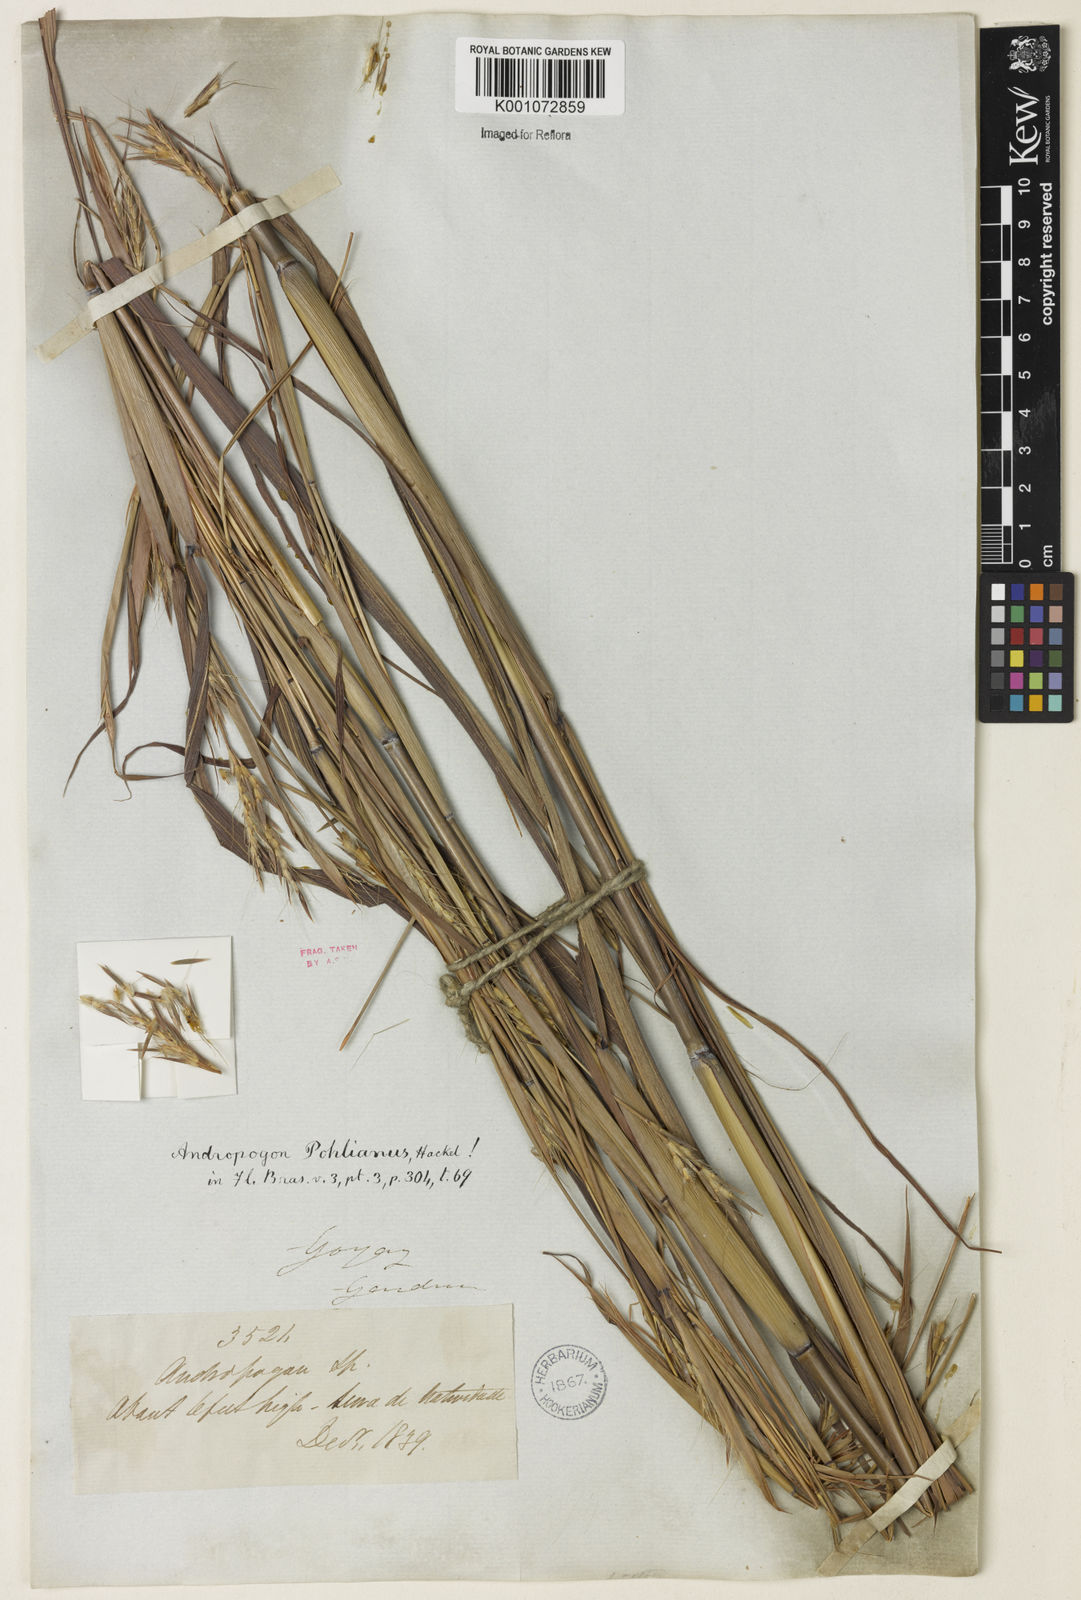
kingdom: Plantae
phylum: Tracheophyta
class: Liliopsida
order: Poales
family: Poaceae
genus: Andropogon
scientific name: Andropogon pohlianus
